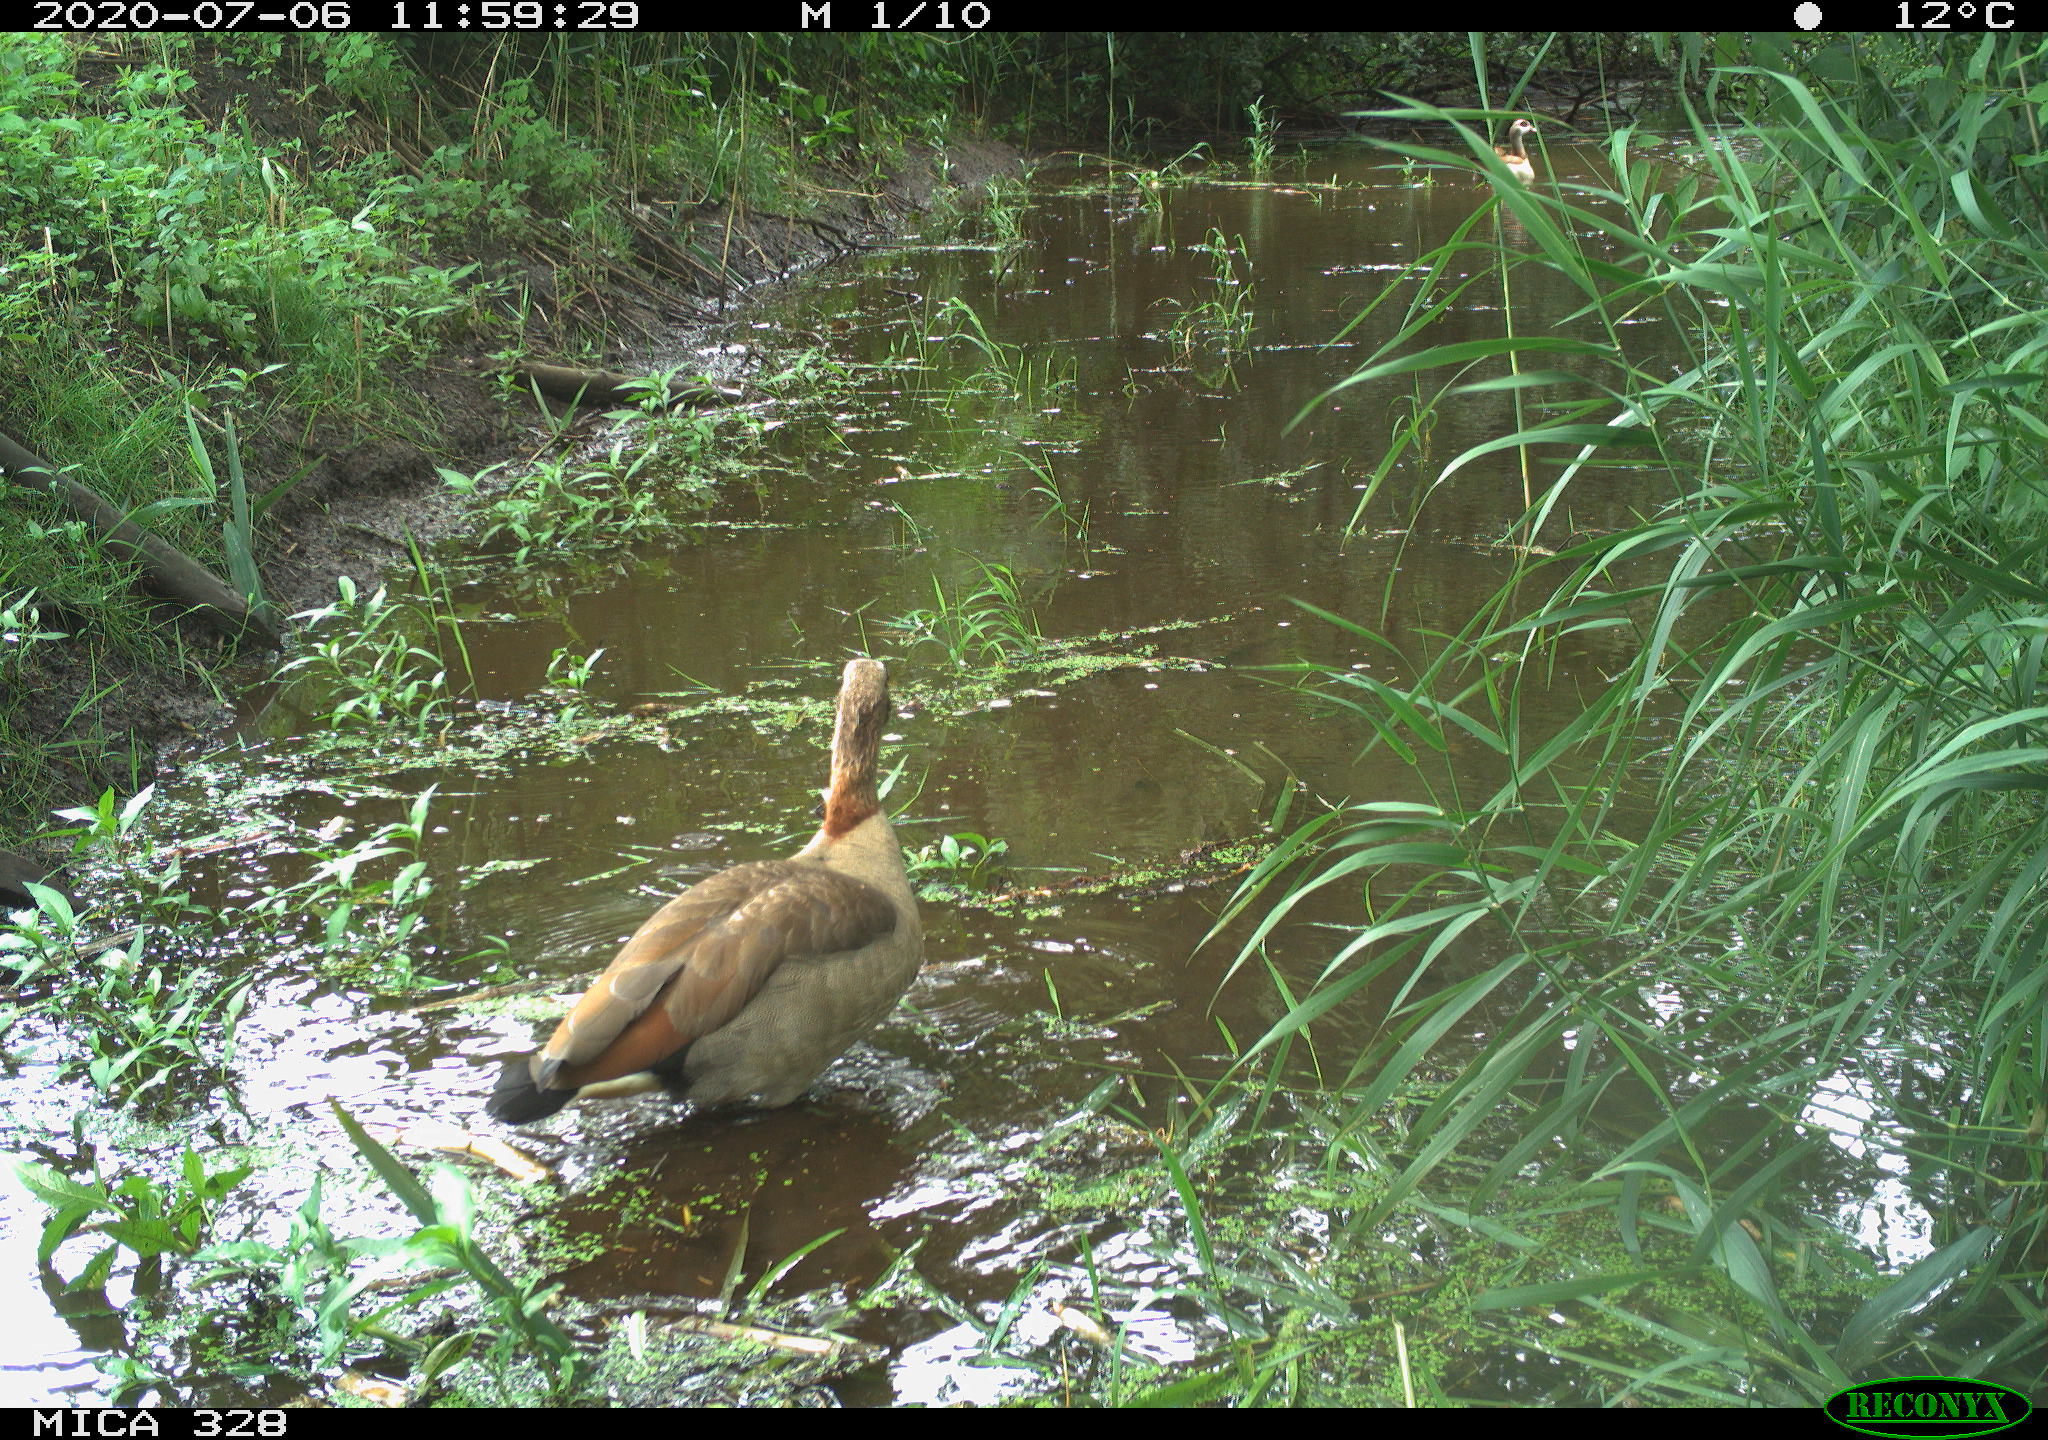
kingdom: Animalia
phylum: Chordata
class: Aves
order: Anseriformes
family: Anatidae
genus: Alopochen
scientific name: Alopochen aegyptiaca
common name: Egyptian goose
